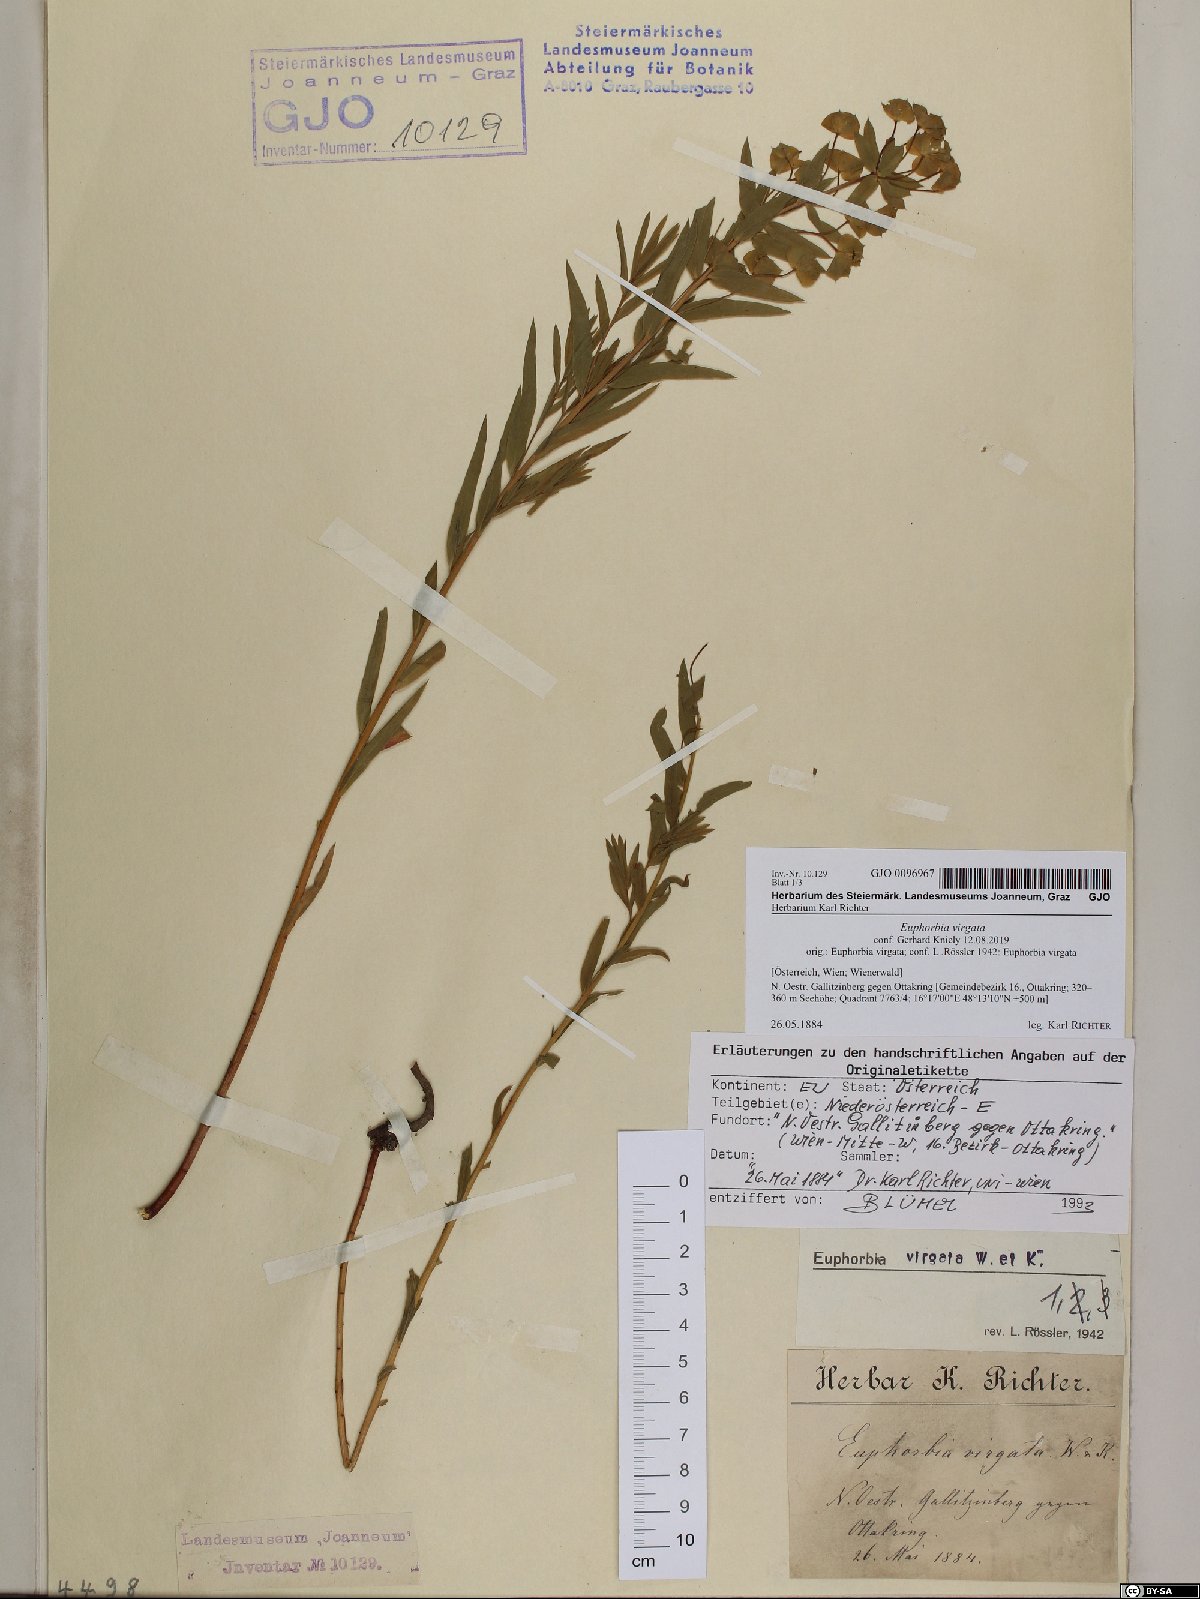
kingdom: Plantae
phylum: Tracheophyta
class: Magnoliopsida
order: Malpighiales
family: Euphorbiaceae
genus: Euphorbia
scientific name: Euphorbia virgata
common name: Leafy spurge
